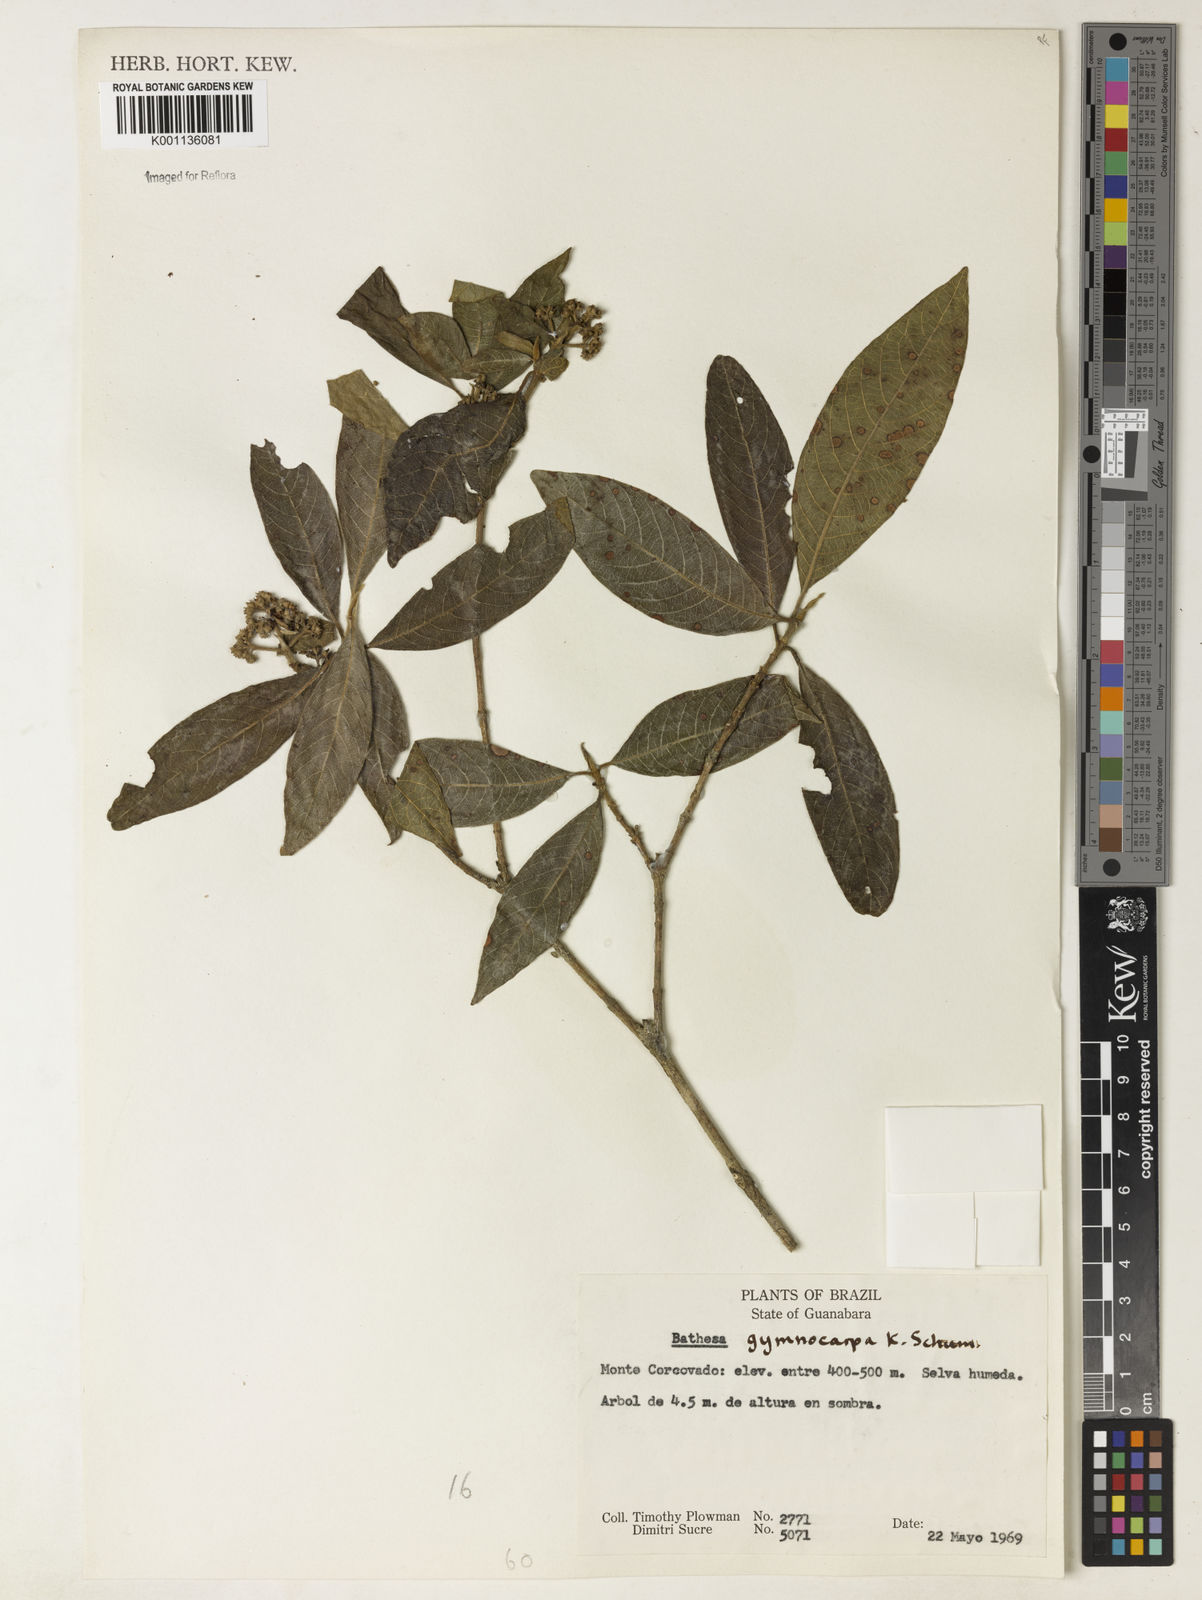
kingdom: Plantae
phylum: Tracheophyta
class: Magnoliopsida
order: Gentianales
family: Rubiaceae
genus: Bathysa
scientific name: Bathysa gymnocarpa
